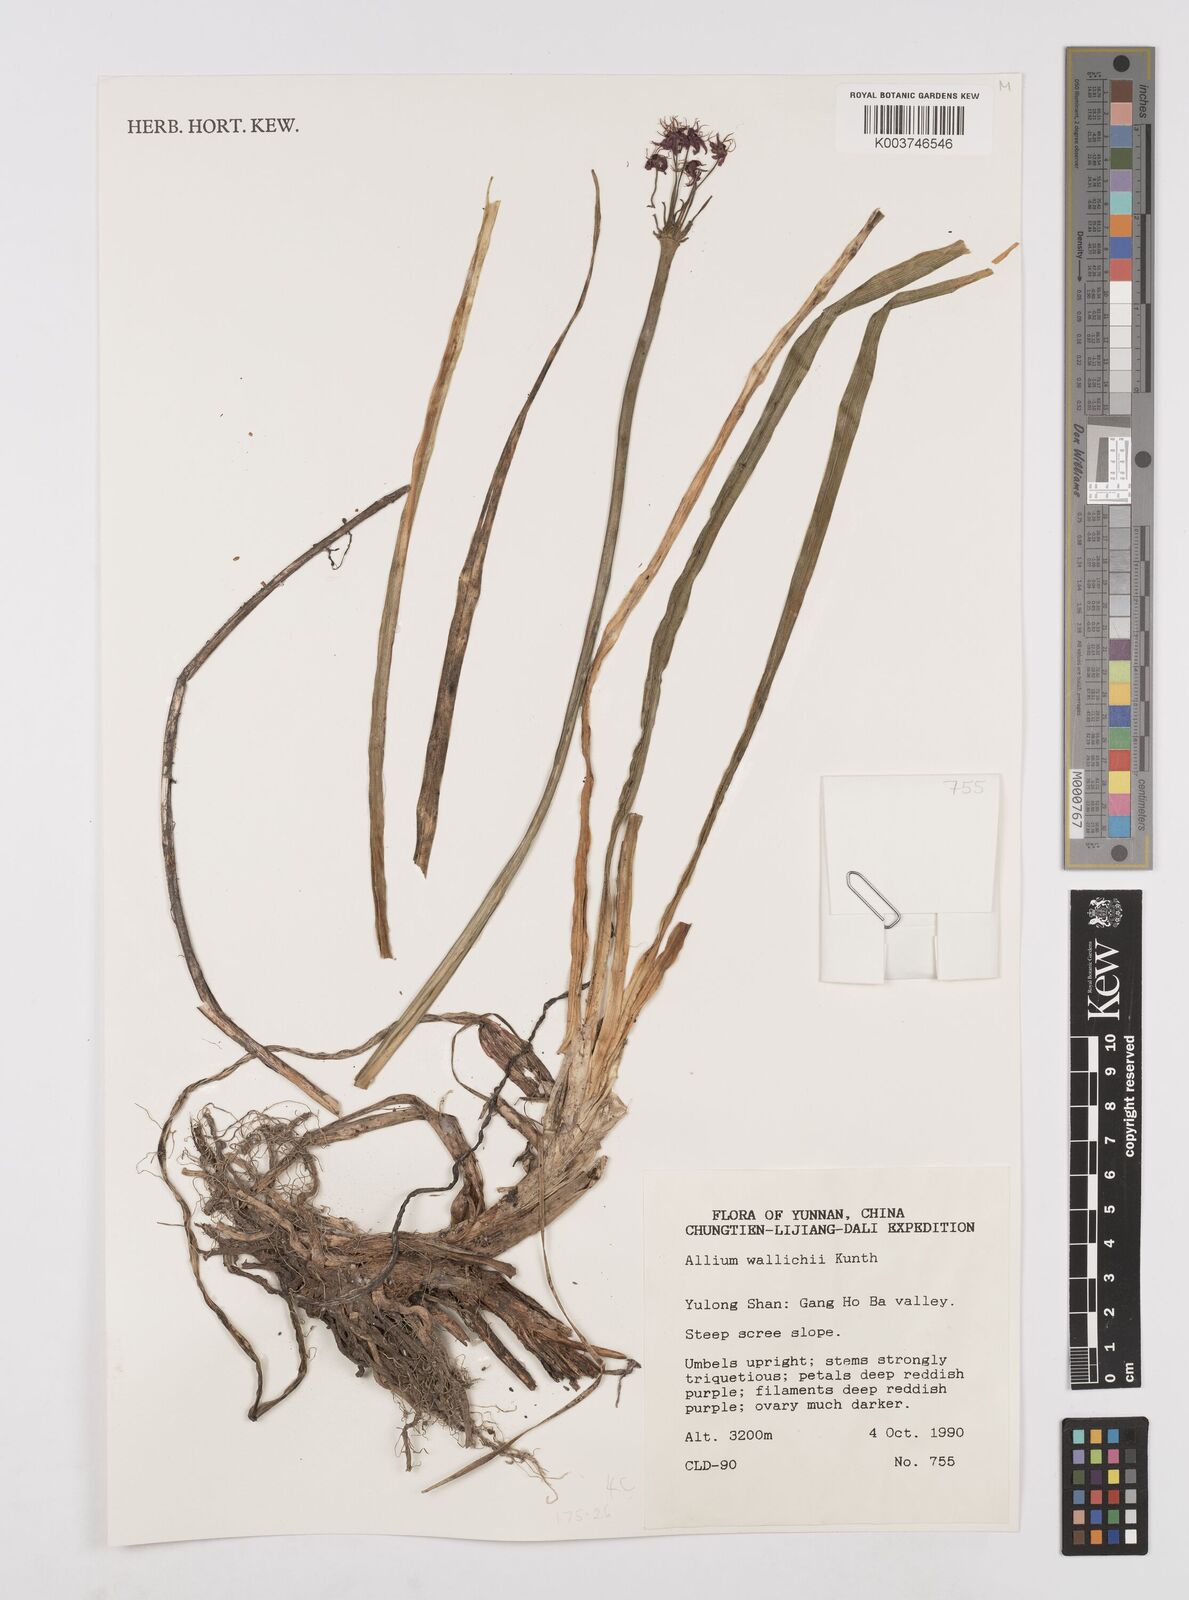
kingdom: Plantae
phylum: Tracheophyta
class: Liliopsida
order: Asparagales
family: Amaryllidaceae
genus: Allium
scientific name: Allium wallichii
